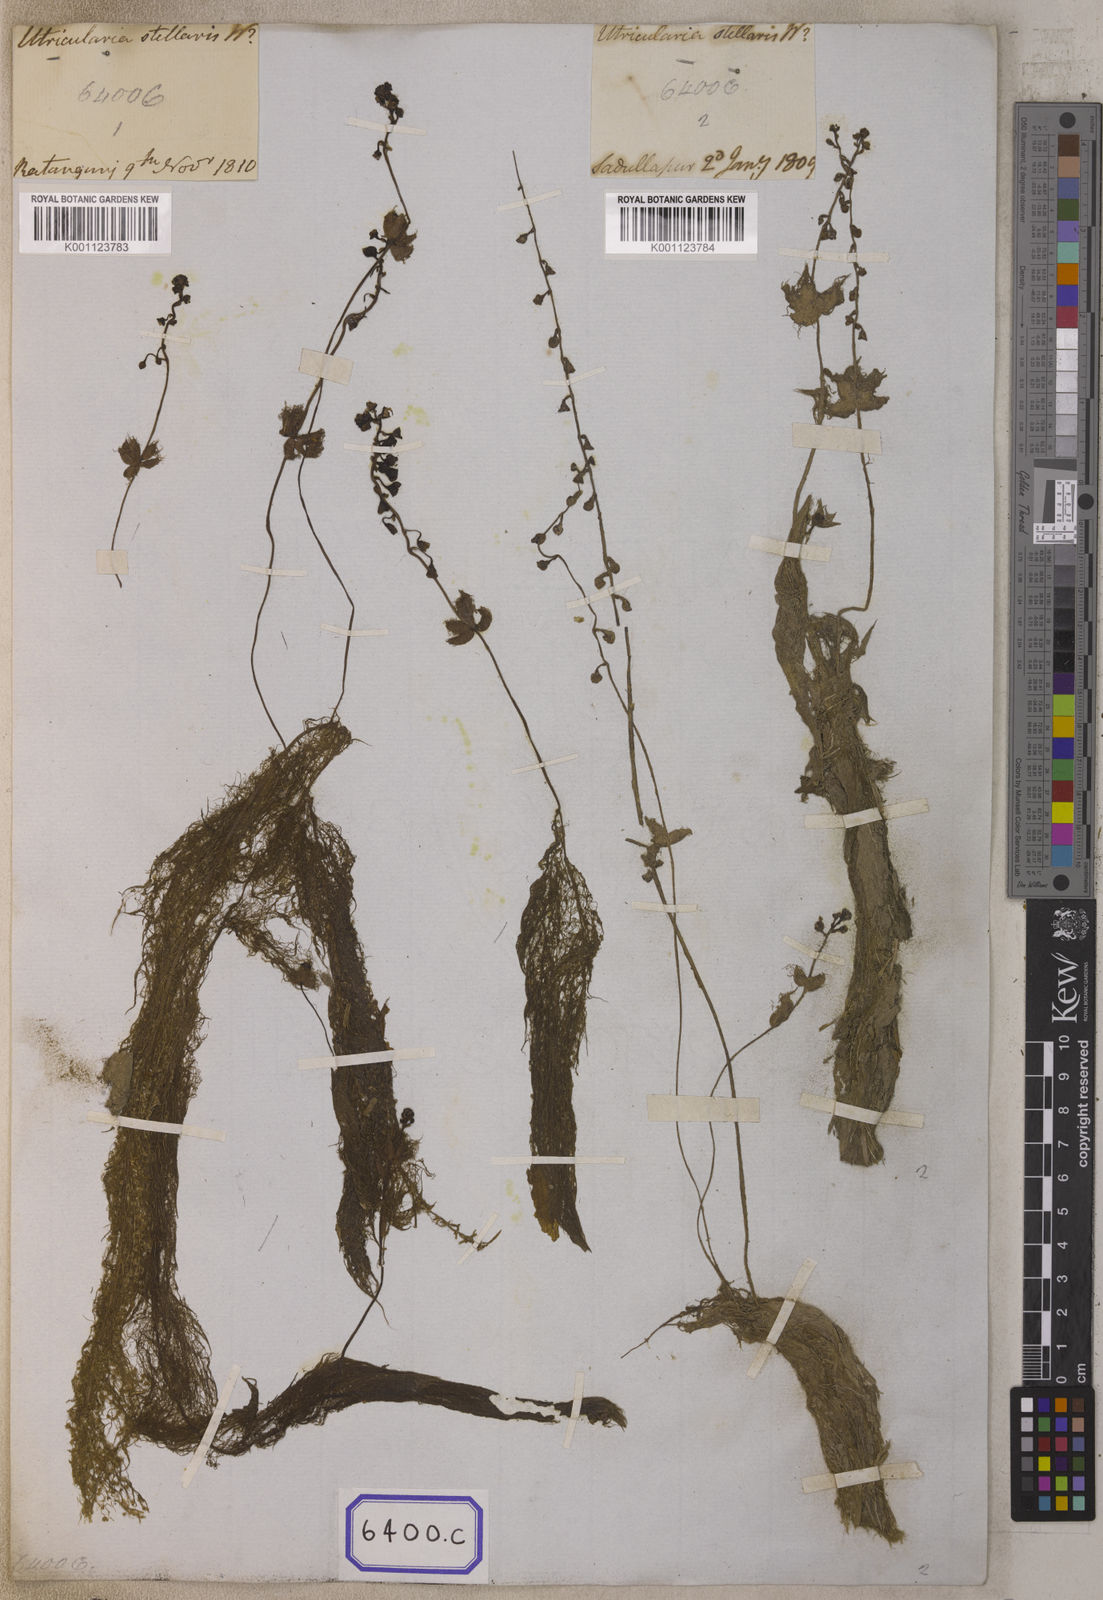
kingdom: Plantae
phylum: Tracheophyta
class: Magnoliopsida
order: Lamiales
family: Lentibulariaceae
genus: Utricularia
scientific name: Utricularia stellaris
